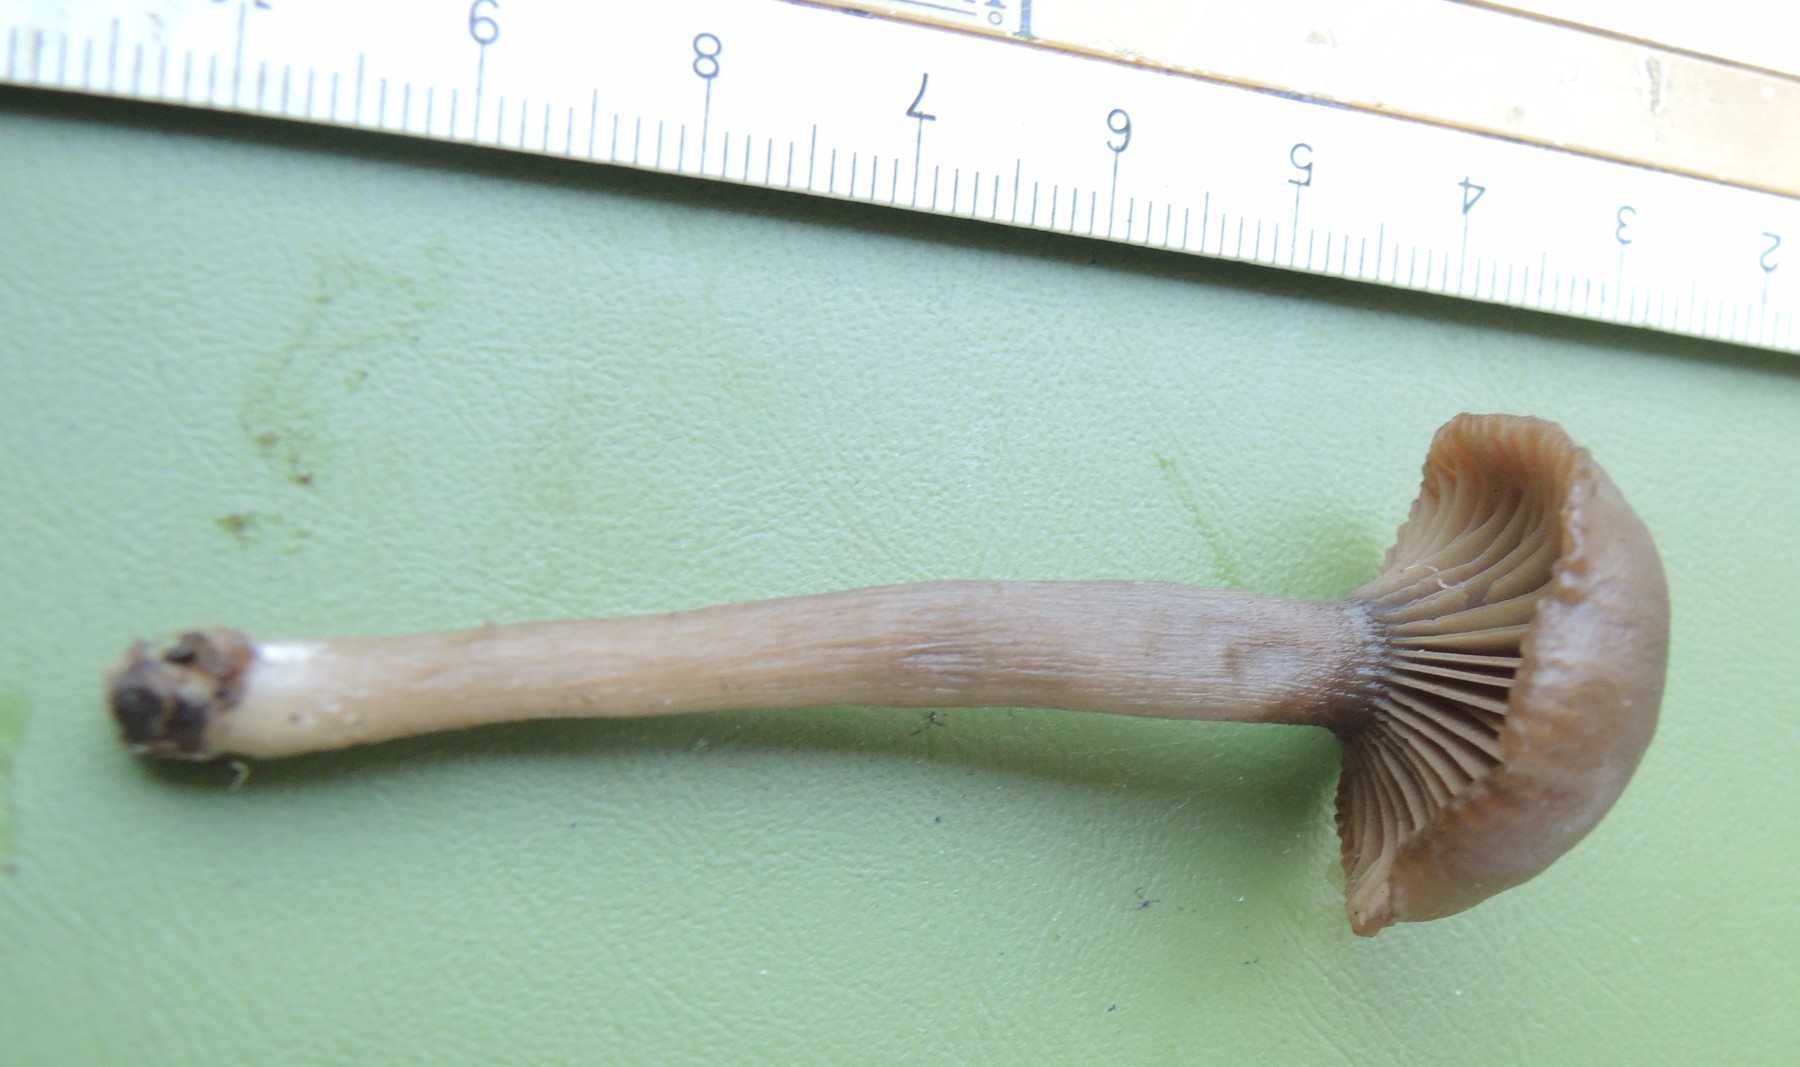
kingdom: Fungi
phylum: Basidiomycota
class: Agaricomycetes
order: Agaricales
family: Pseudoclitocybaceae
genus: Pseudoclitocybe
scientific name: Pseudoclitocybe expallens
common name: lille bægertragthat
